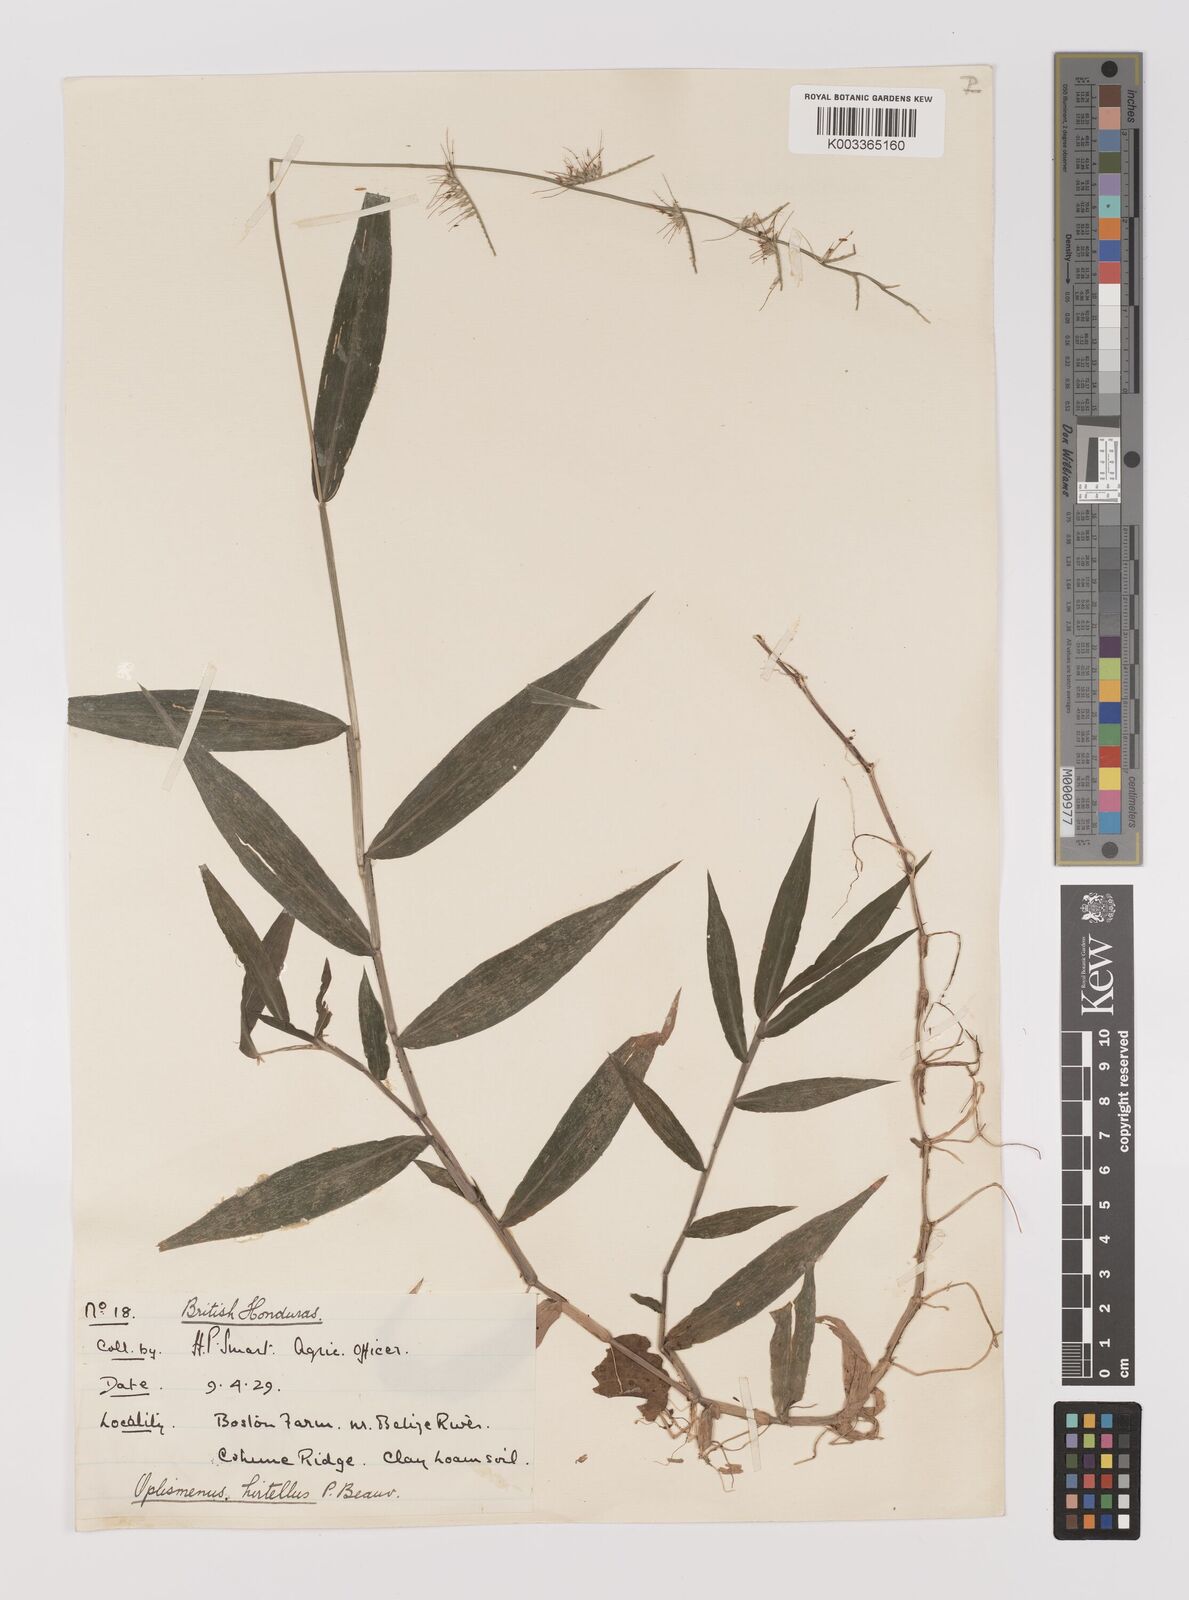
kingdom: Plantae
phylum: Tracheophyta
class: Liliopsida
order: Poales
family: Poaceae
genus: Oplismenus
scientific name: Oplismenus hirtellus
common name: Basketgrass
